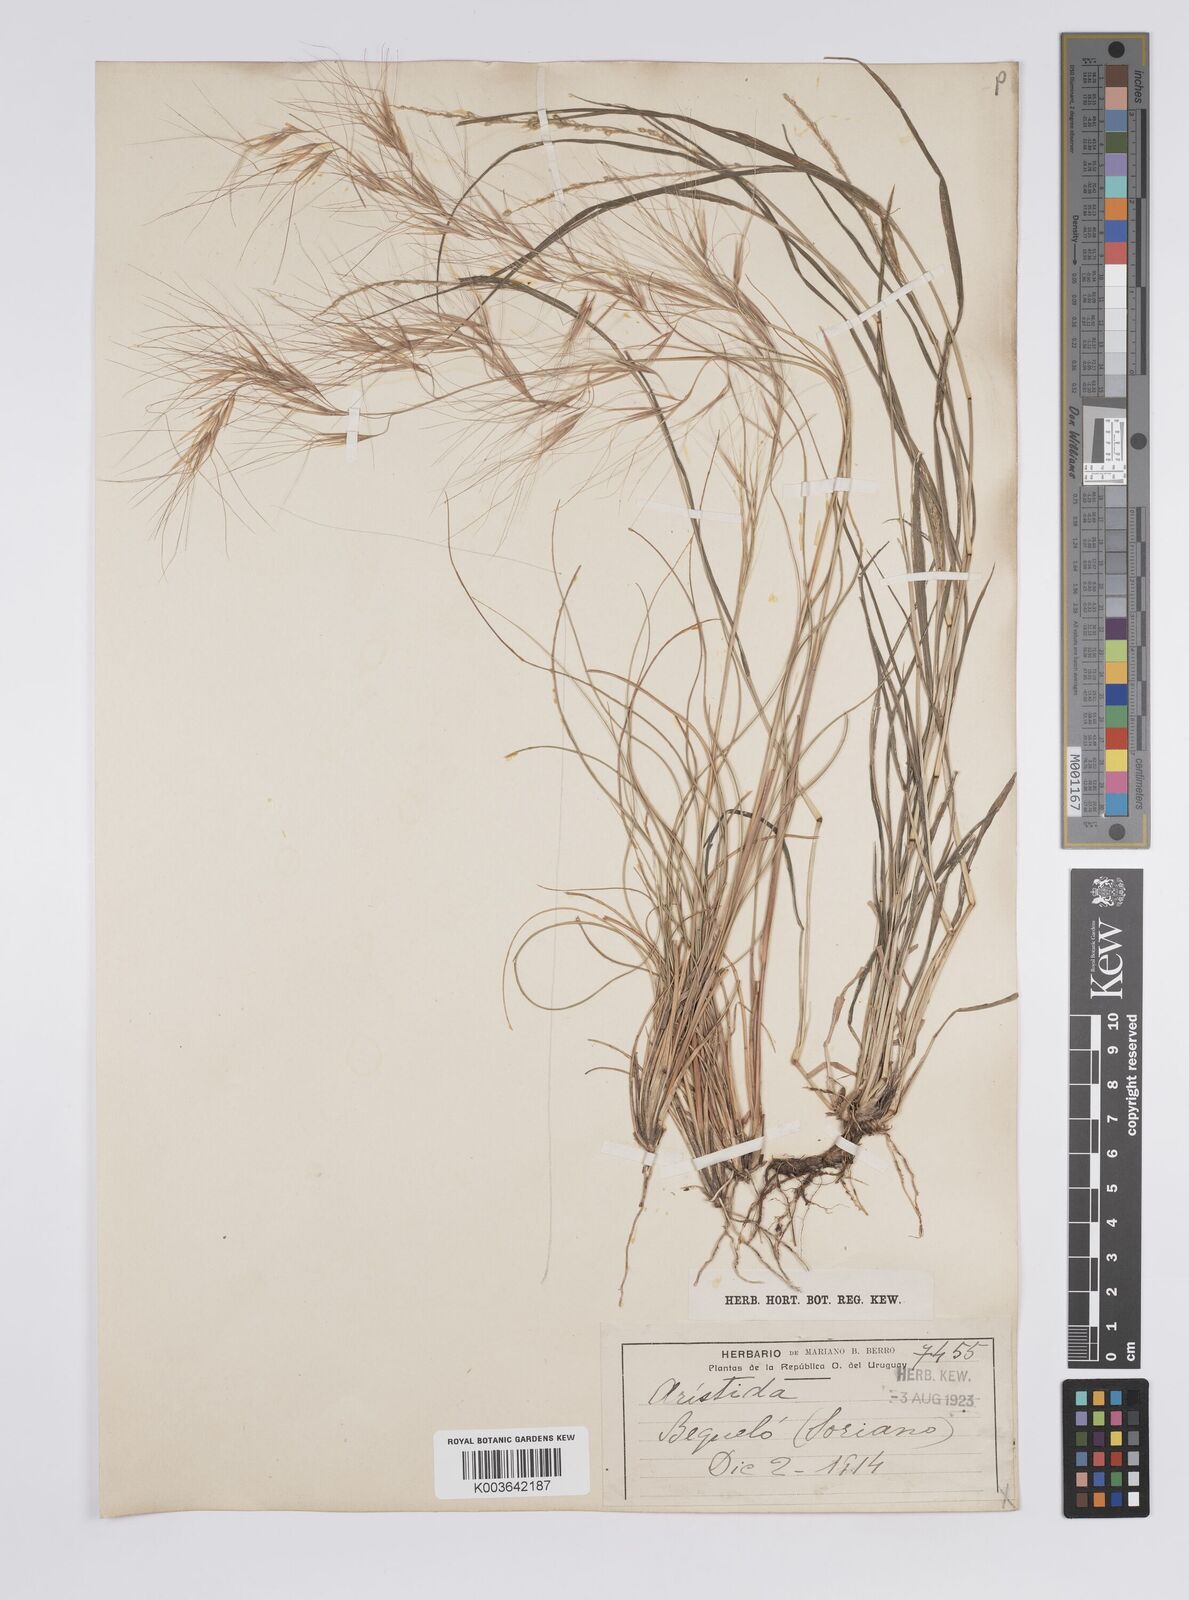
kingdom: Plantae
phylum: Tracheophyta
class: Liliopsida
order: Poales
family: Poaceae
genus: Aristida
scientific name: Aristida
